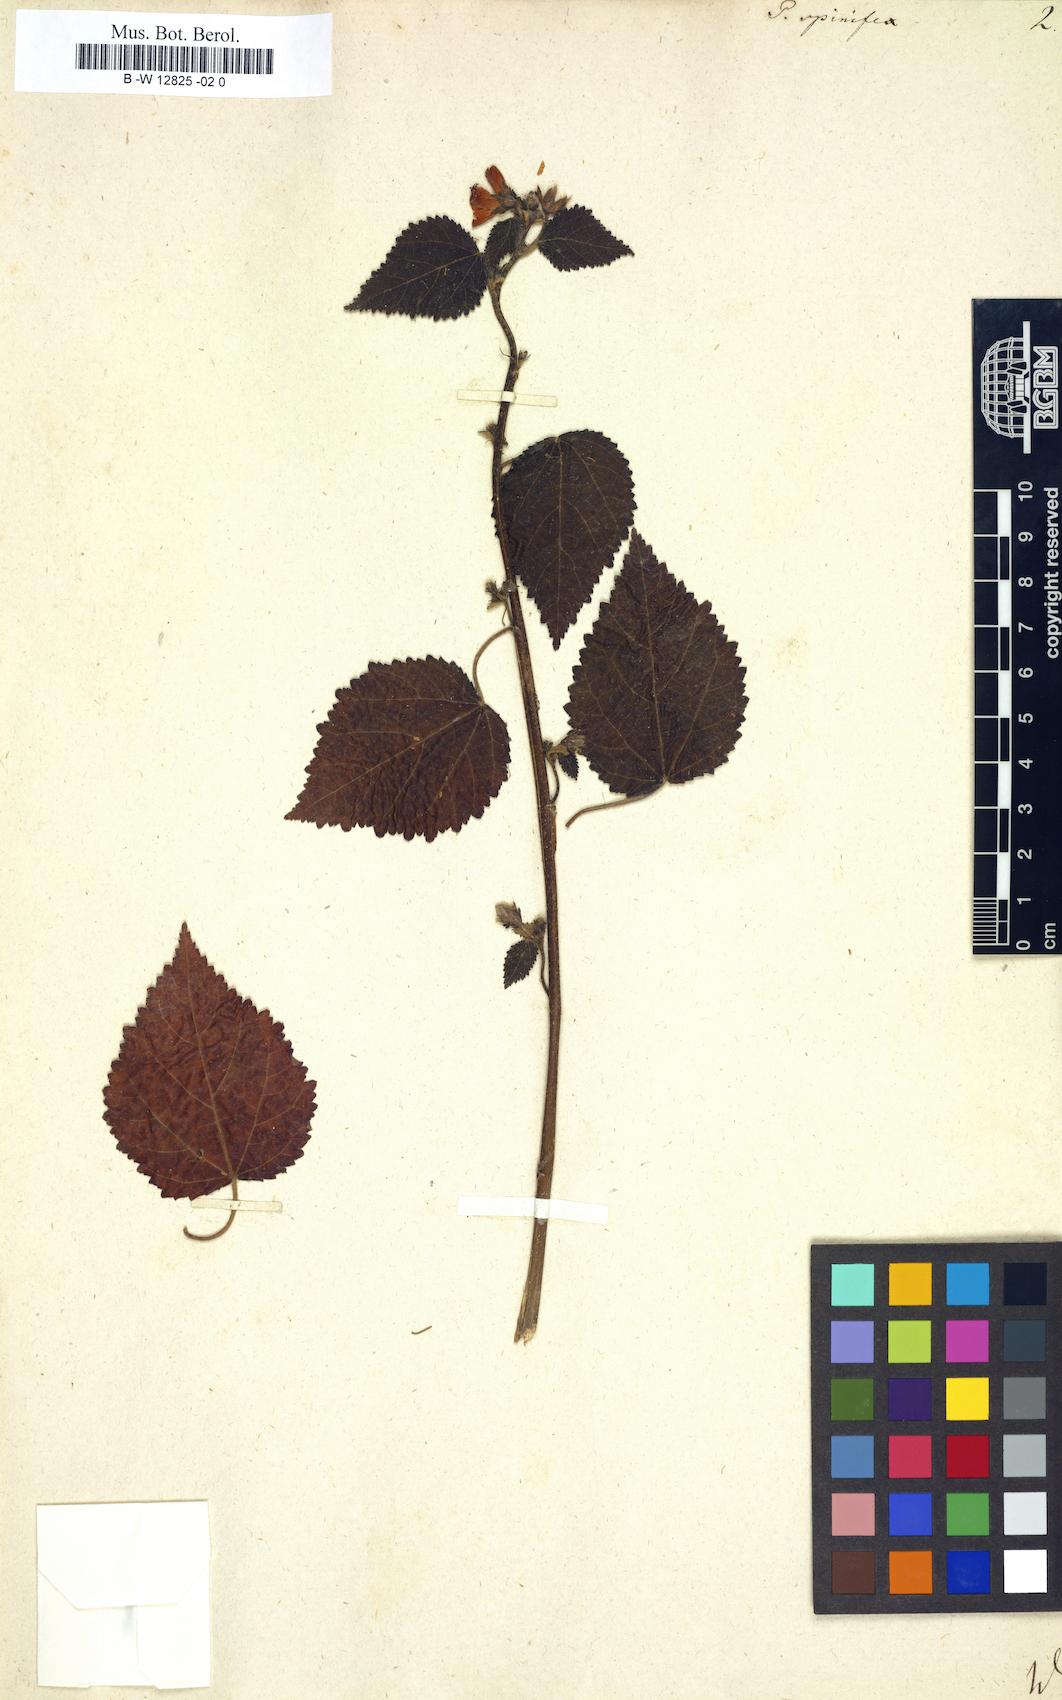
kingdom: Plantae
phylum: Tracheophyta
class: Magnoliopsida
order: Malvales
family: Malvaceae
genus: Pavonia
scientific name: Pavonia spinifex
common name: Ginger bush
